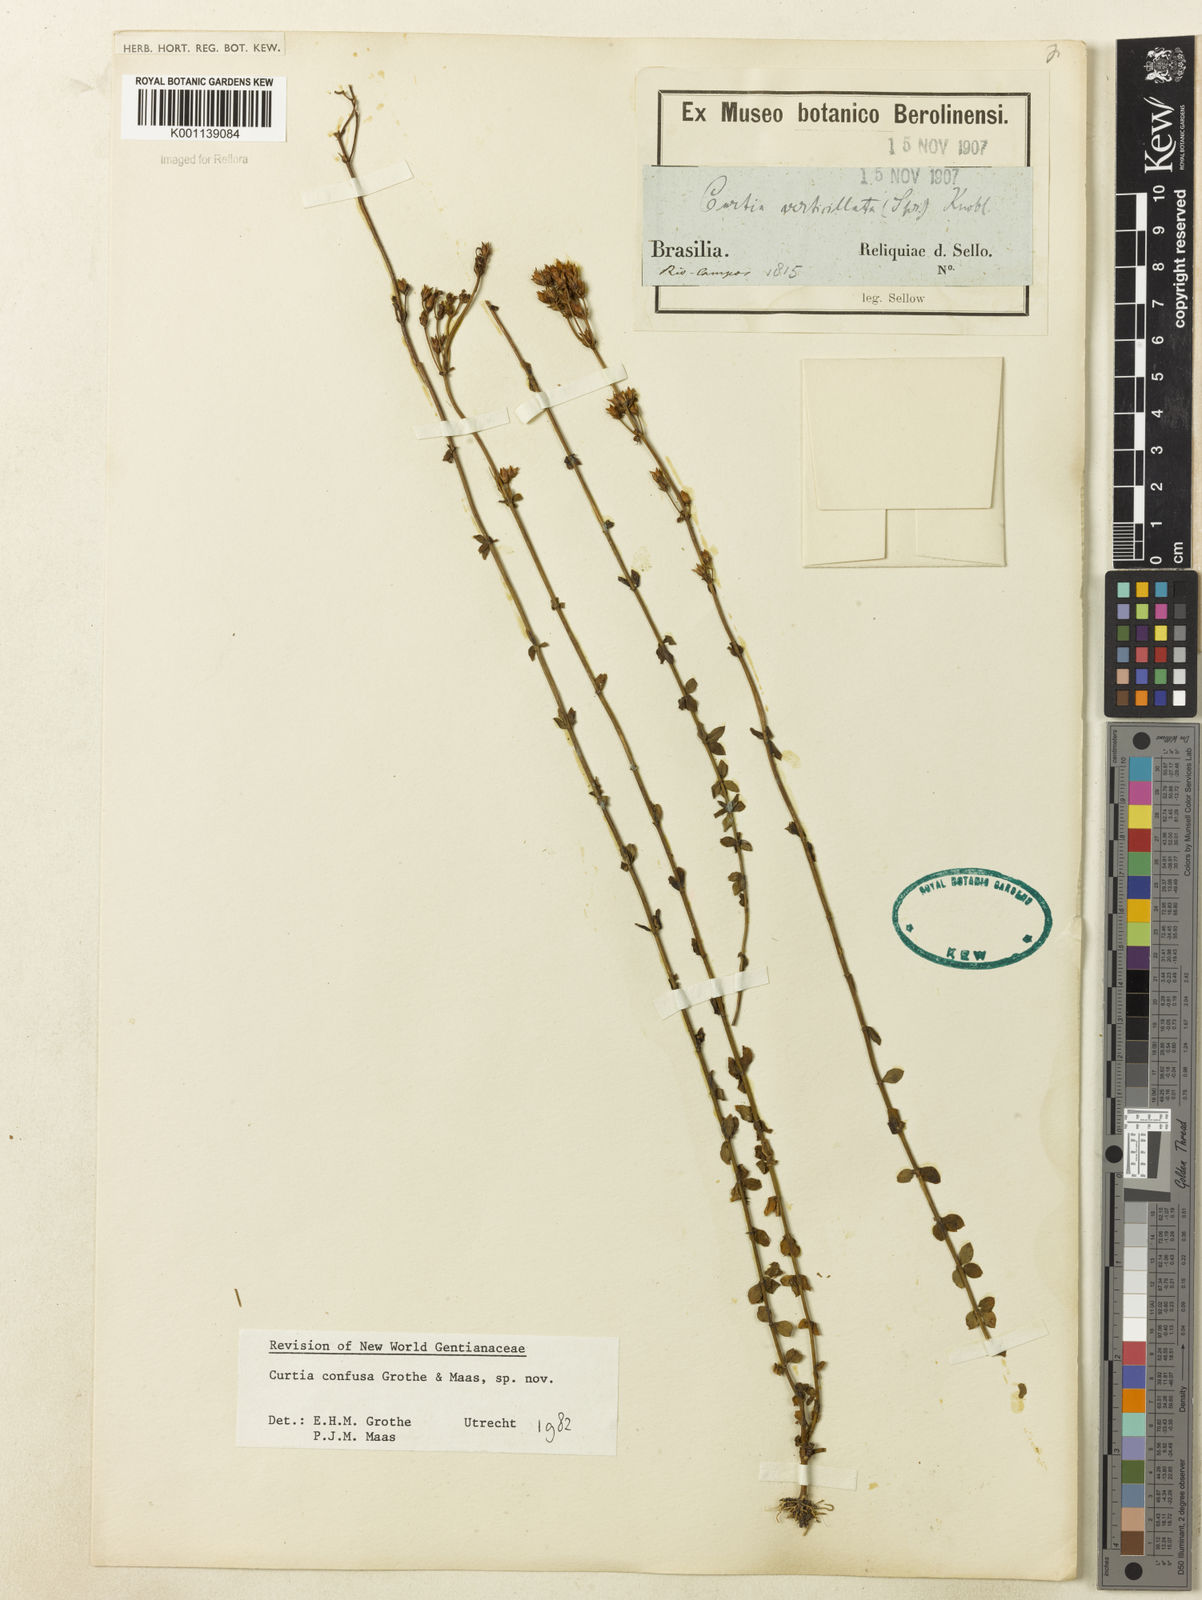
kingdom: Plantae
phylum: Tracheophyta
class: Magnoliopsida
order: Gentianales
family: Gentianaceae
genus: Curtia
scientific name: Curtia conferta
